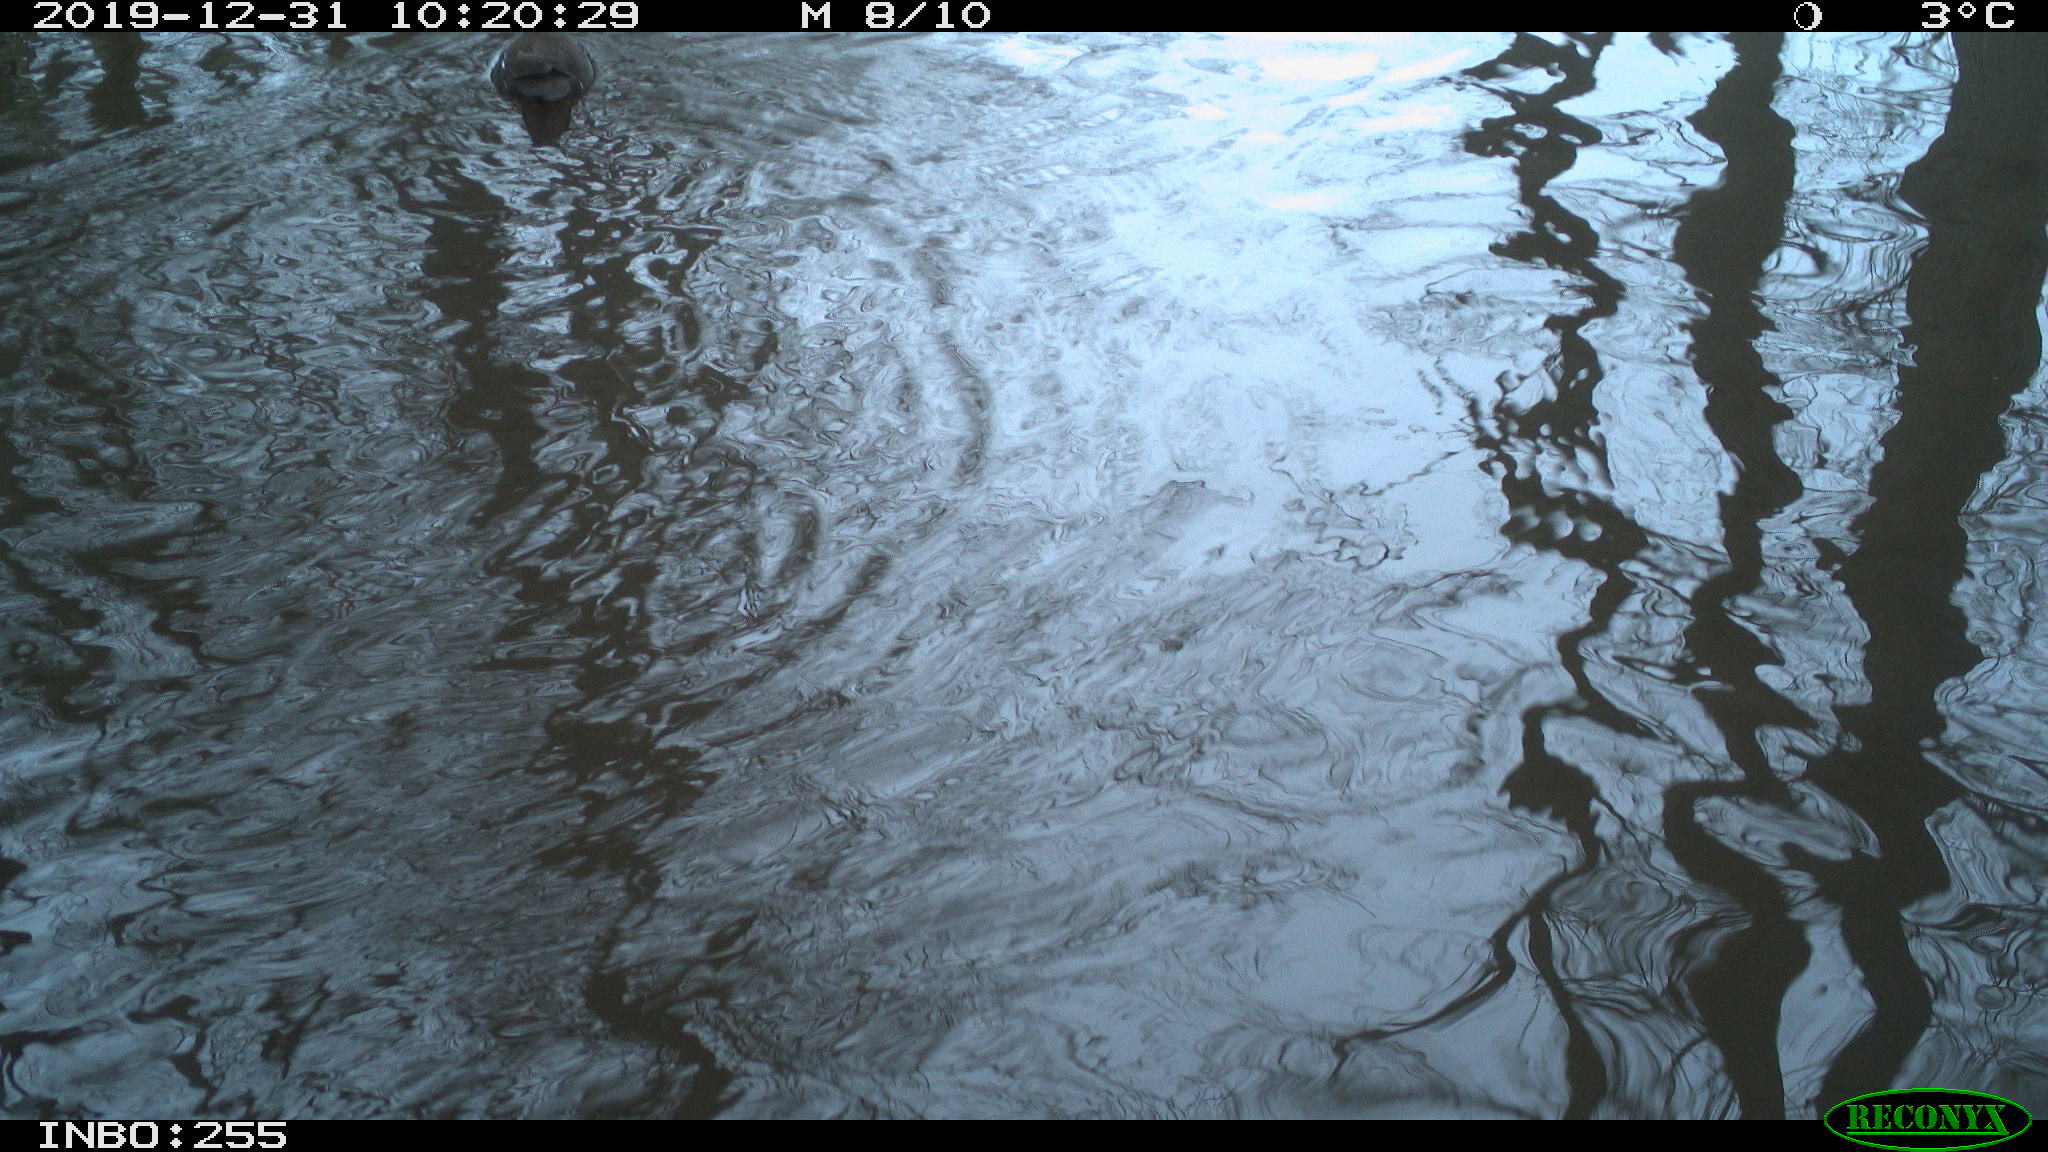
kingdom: Animalia
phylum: Chordata
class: Aves
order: Gruiformes
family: Rallidae
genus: Gallinula
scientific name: Gallinula chloropus
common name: Common moorhen
